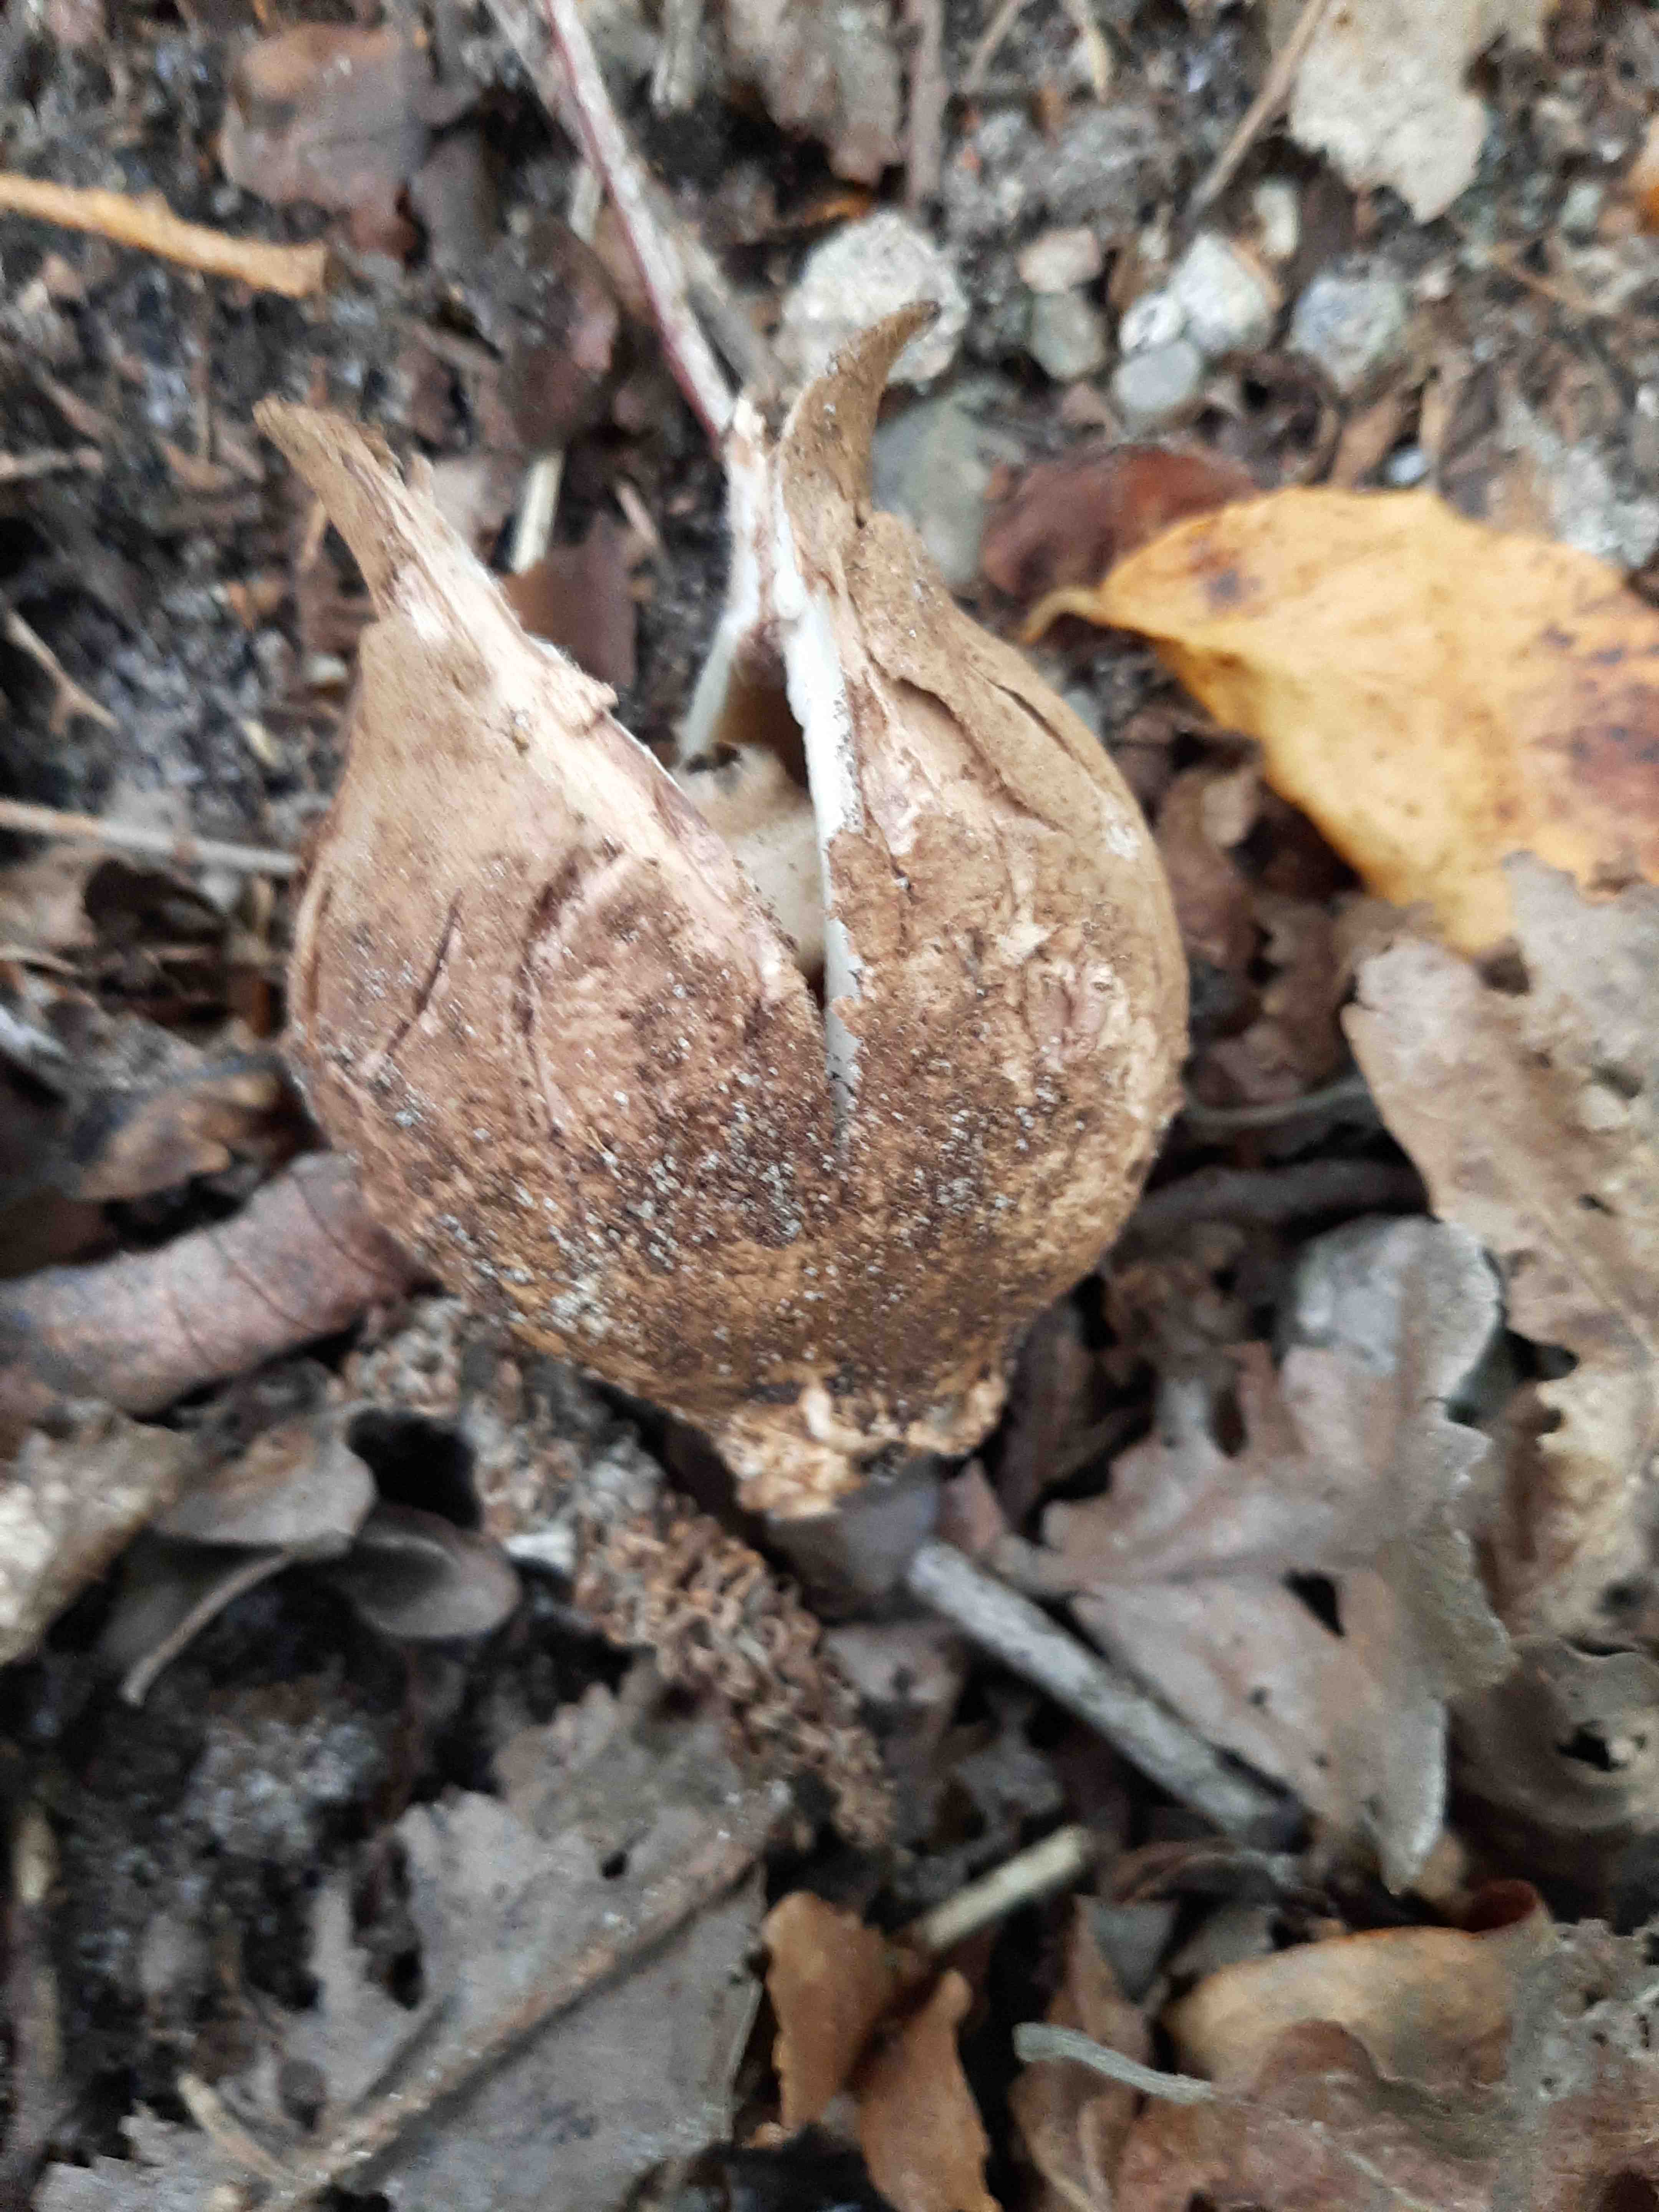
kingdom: Fungi
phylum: Basidiomycota
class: Agaricomycetes
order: Geastrales
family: Geastraceae
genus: Geastrum
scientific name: Geastrum michelianum
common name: kødet stjernebold
